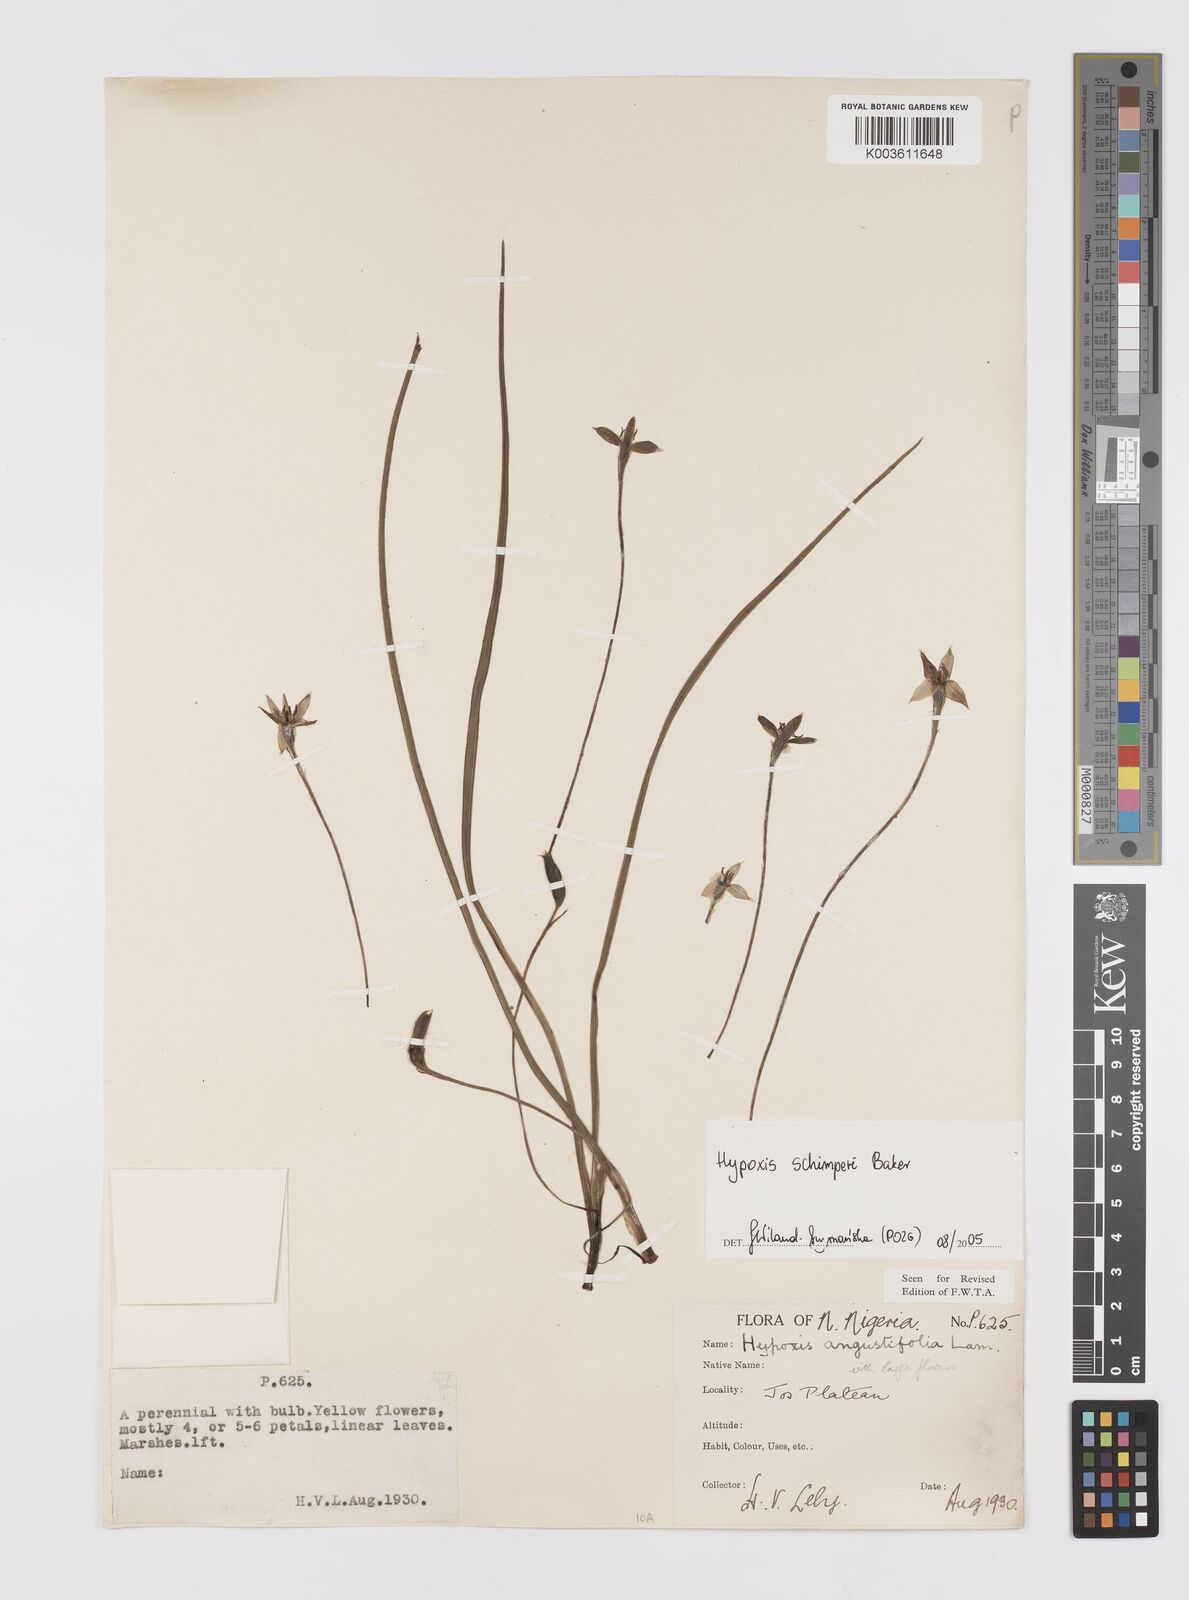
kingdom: Plantae
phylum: Tracheophyta
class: Liliopsida
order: Asparagales
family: Hypoxidaceae
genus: Hypoxis
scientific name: Hypoxis schimperi
